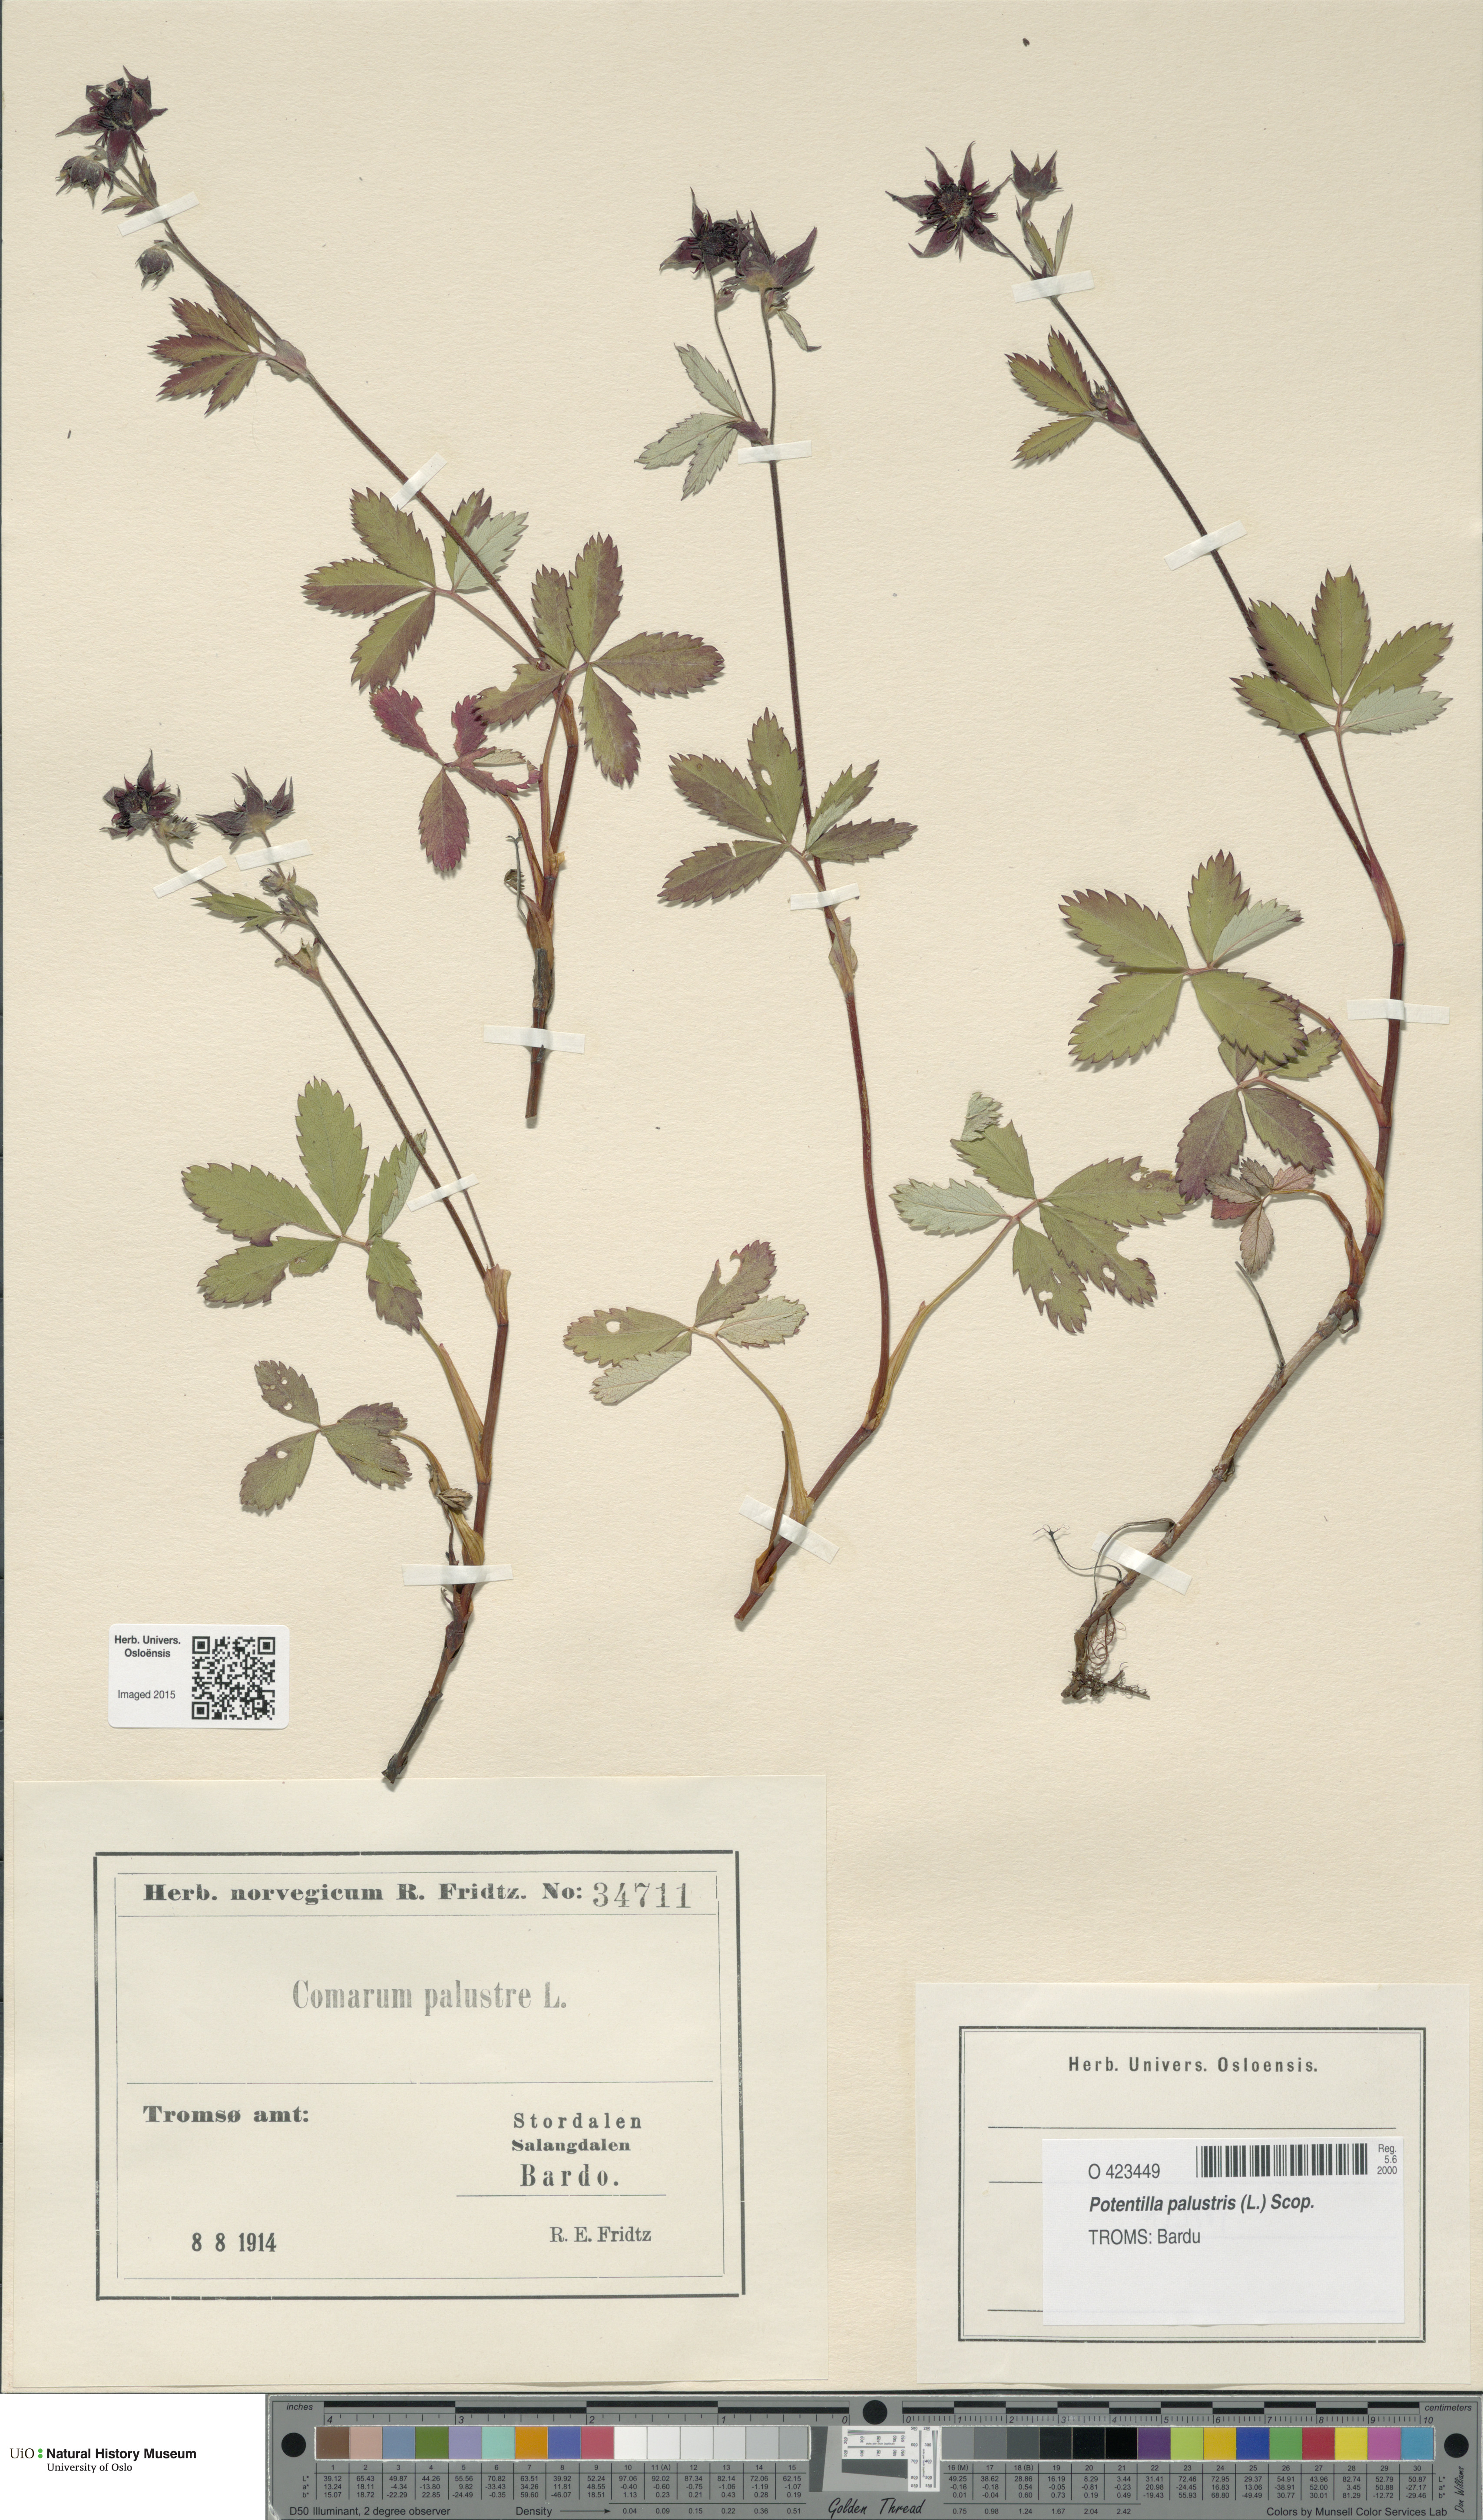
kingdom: Plantae
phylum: Tracheophyta
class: Magnoliopsida
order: Rosales
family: Rosaceae
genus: Comarum
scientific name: Comarum palustre
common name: Marsh cinquefoil
